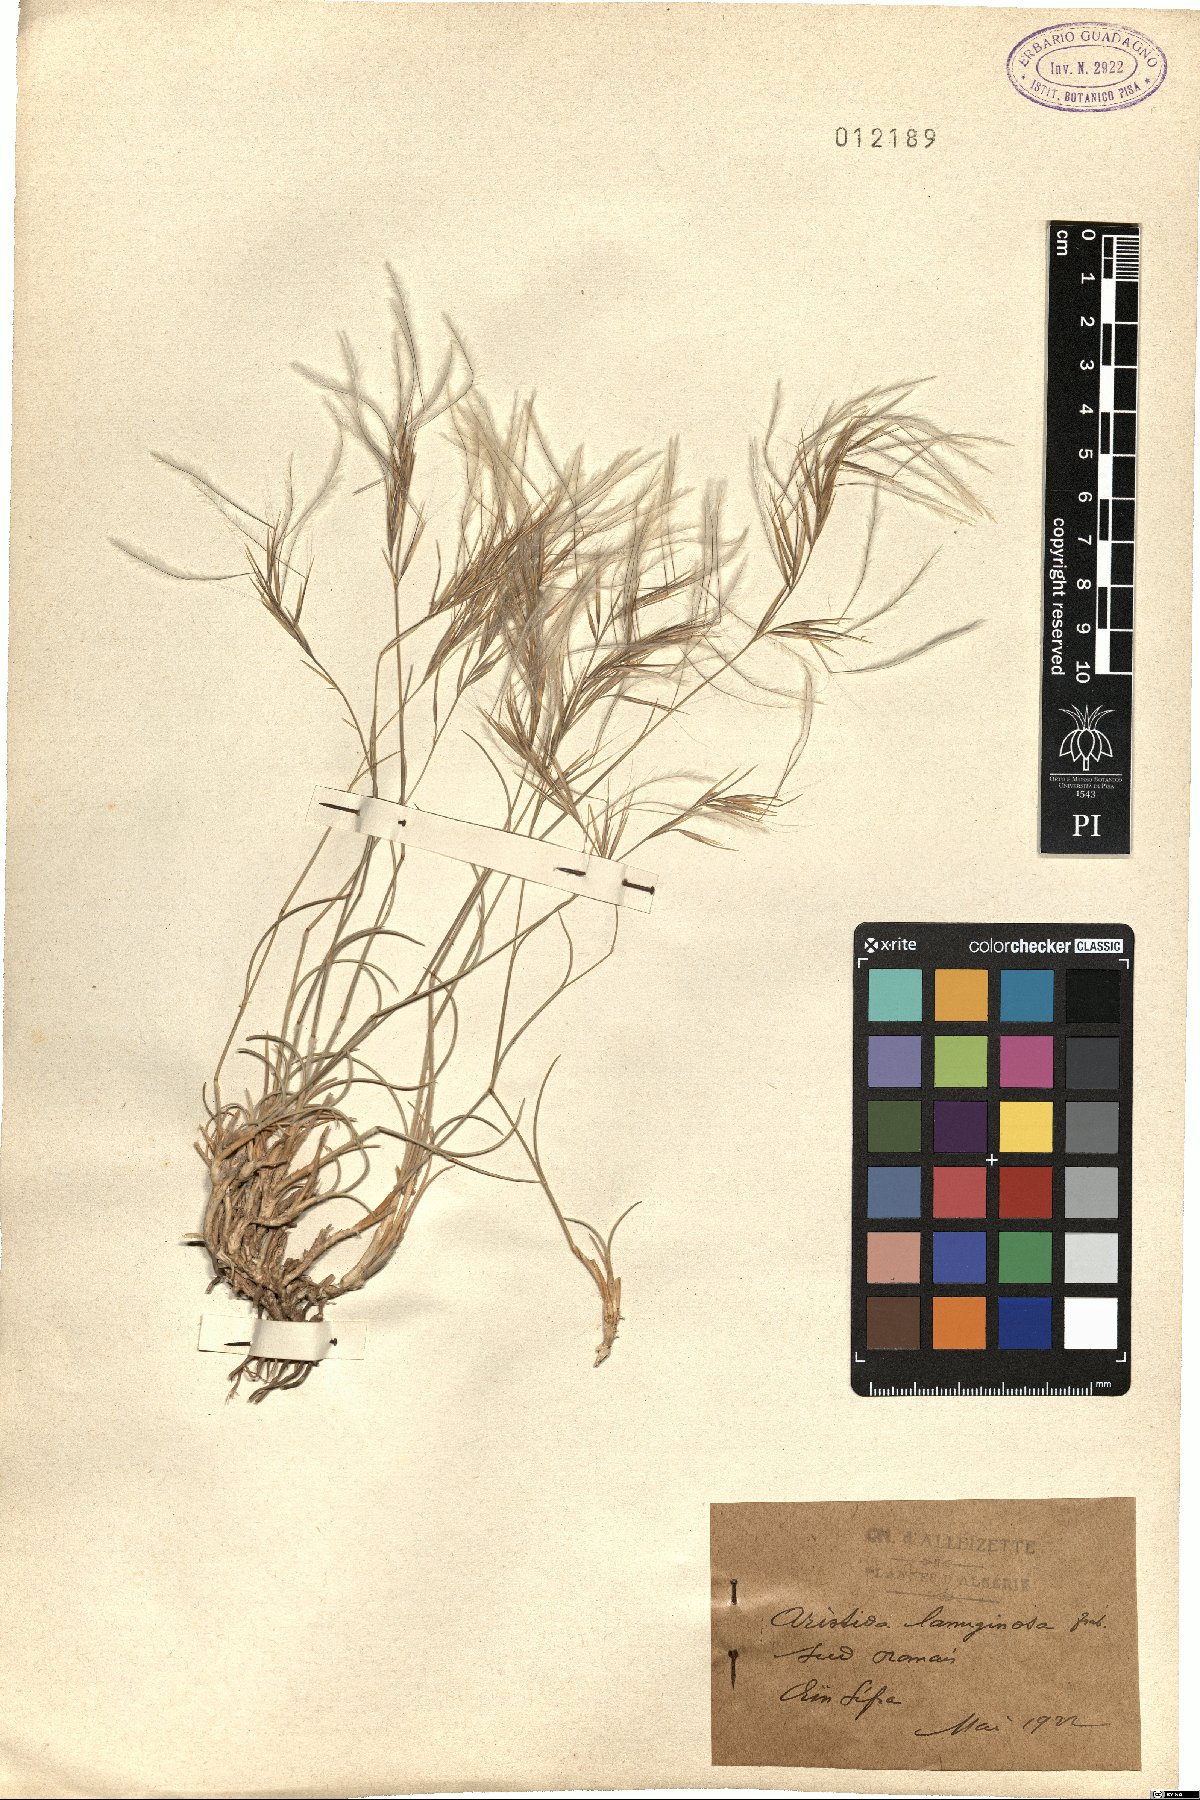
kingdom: Plantae
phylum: Tracheophyta
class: Liliopsida
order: Poales
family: Poaceae
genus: Aristida
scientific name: Aristida scribneriana
